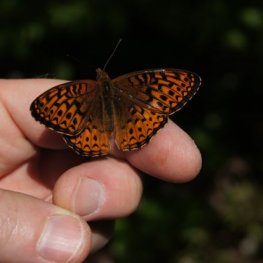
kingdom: Animalia
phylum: Arthropoda
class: Insecta
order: Lepidoptera
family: Nymphalidae
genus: Speyeria
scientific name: Speyeria atlantis
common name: Atlantis Fritillary
